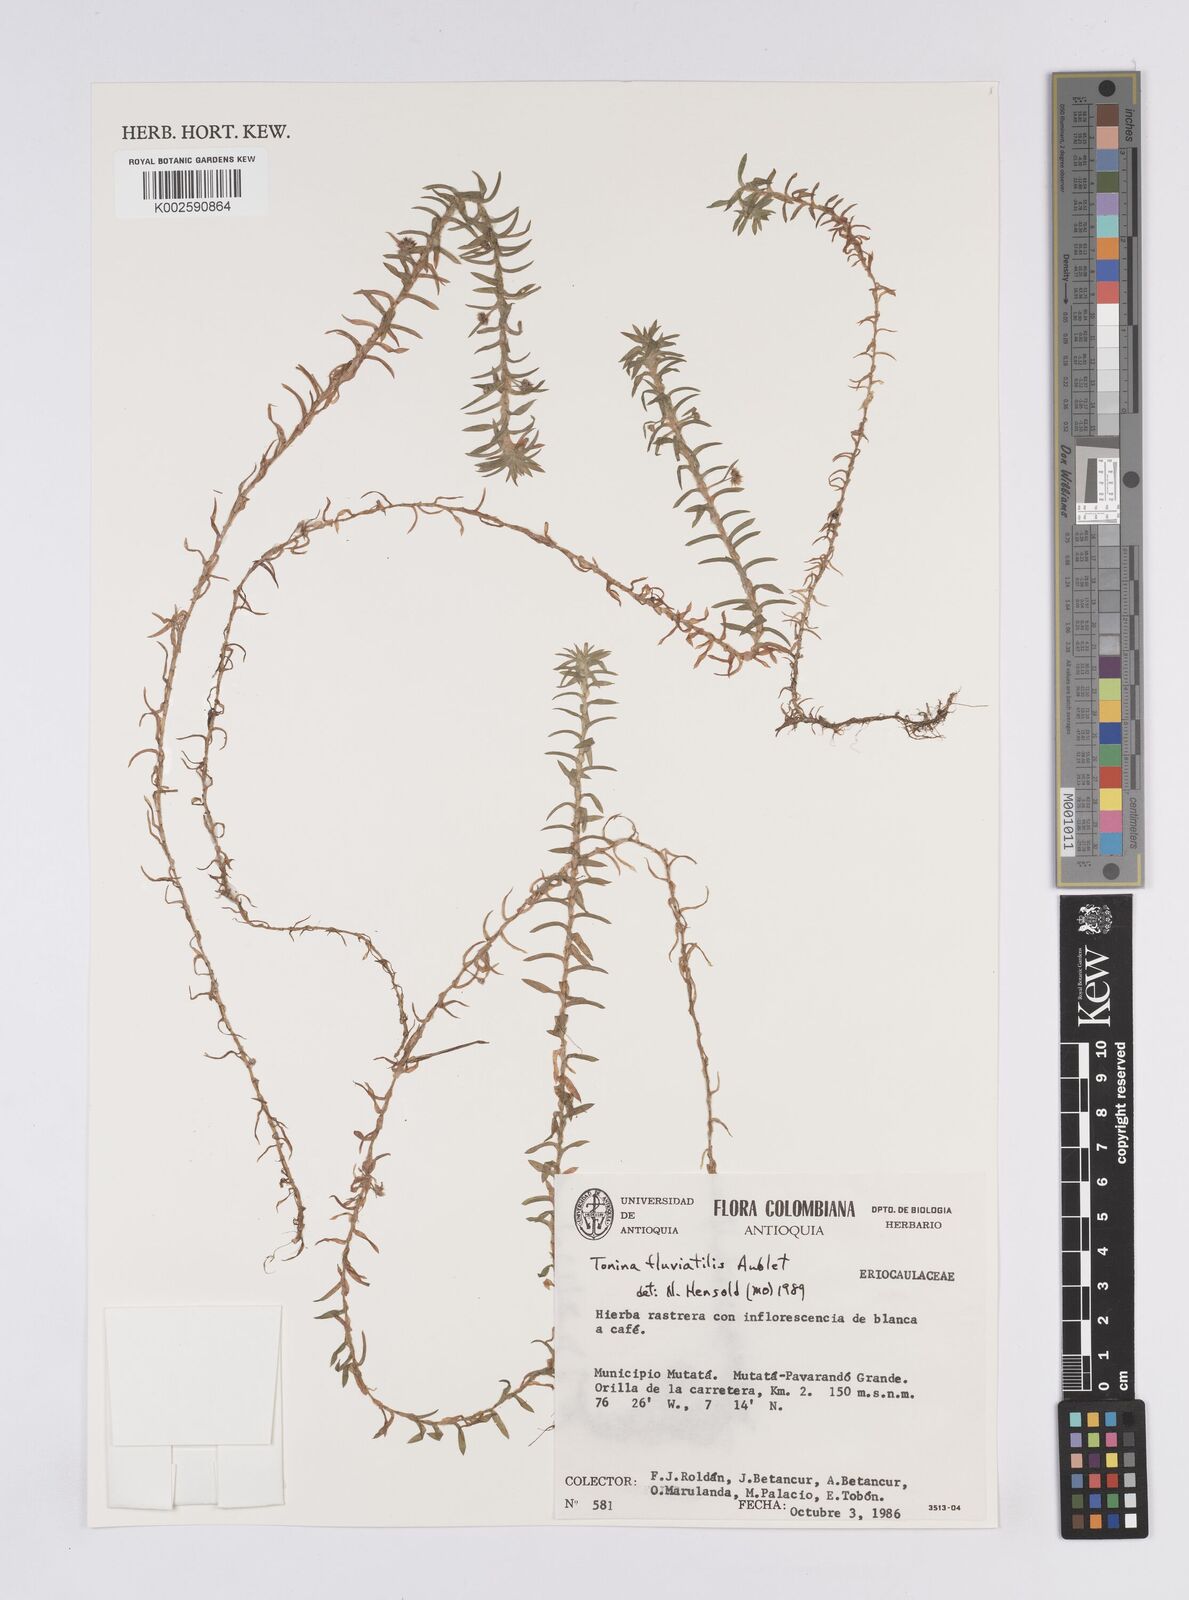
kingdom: Plantae
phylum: Tracheophyta
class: Liliopsida
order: Poales
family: Eriocaulaceae
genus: Paepalanthus
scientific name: Paepalanthus fluviatilis
